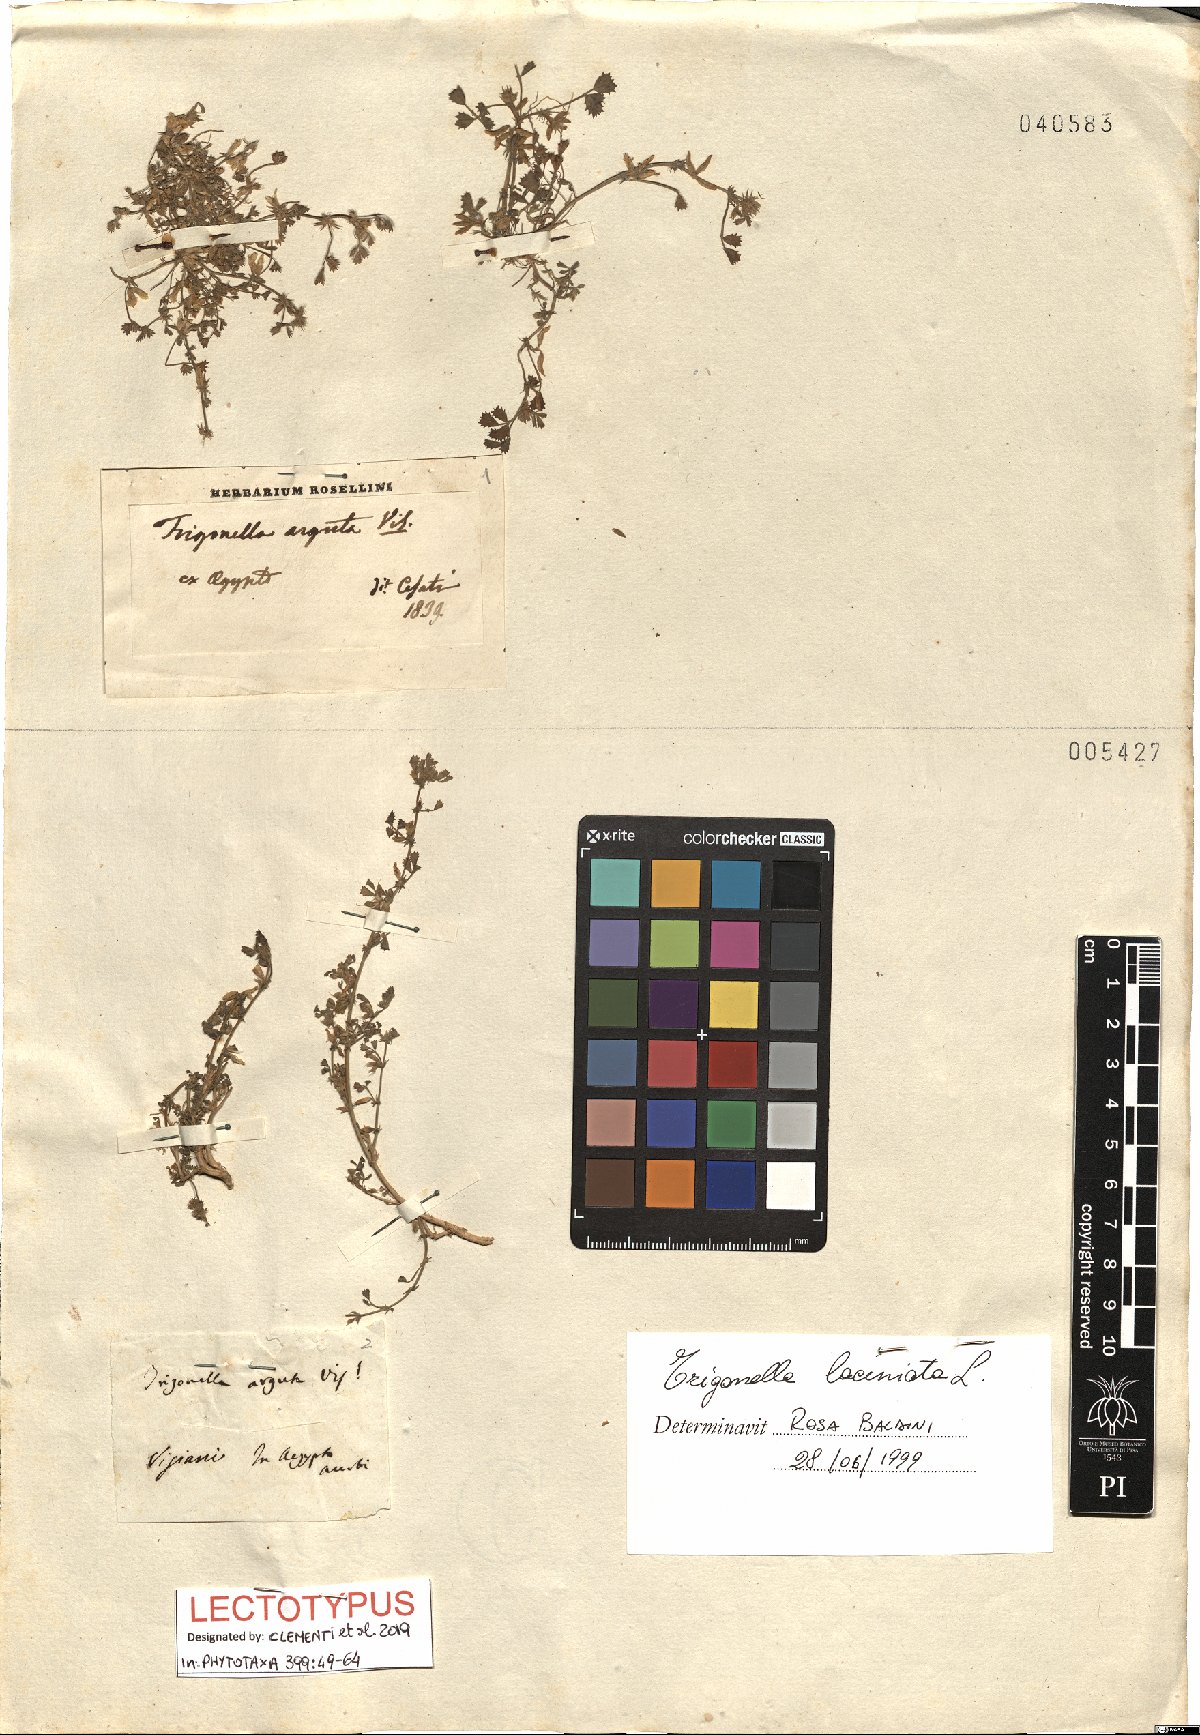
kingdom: Plantae
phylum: Tracheophyta
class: Magnoliopsida
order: Fabales
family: Fabaceae
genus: Trigonella
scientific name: Trigonella occulta
